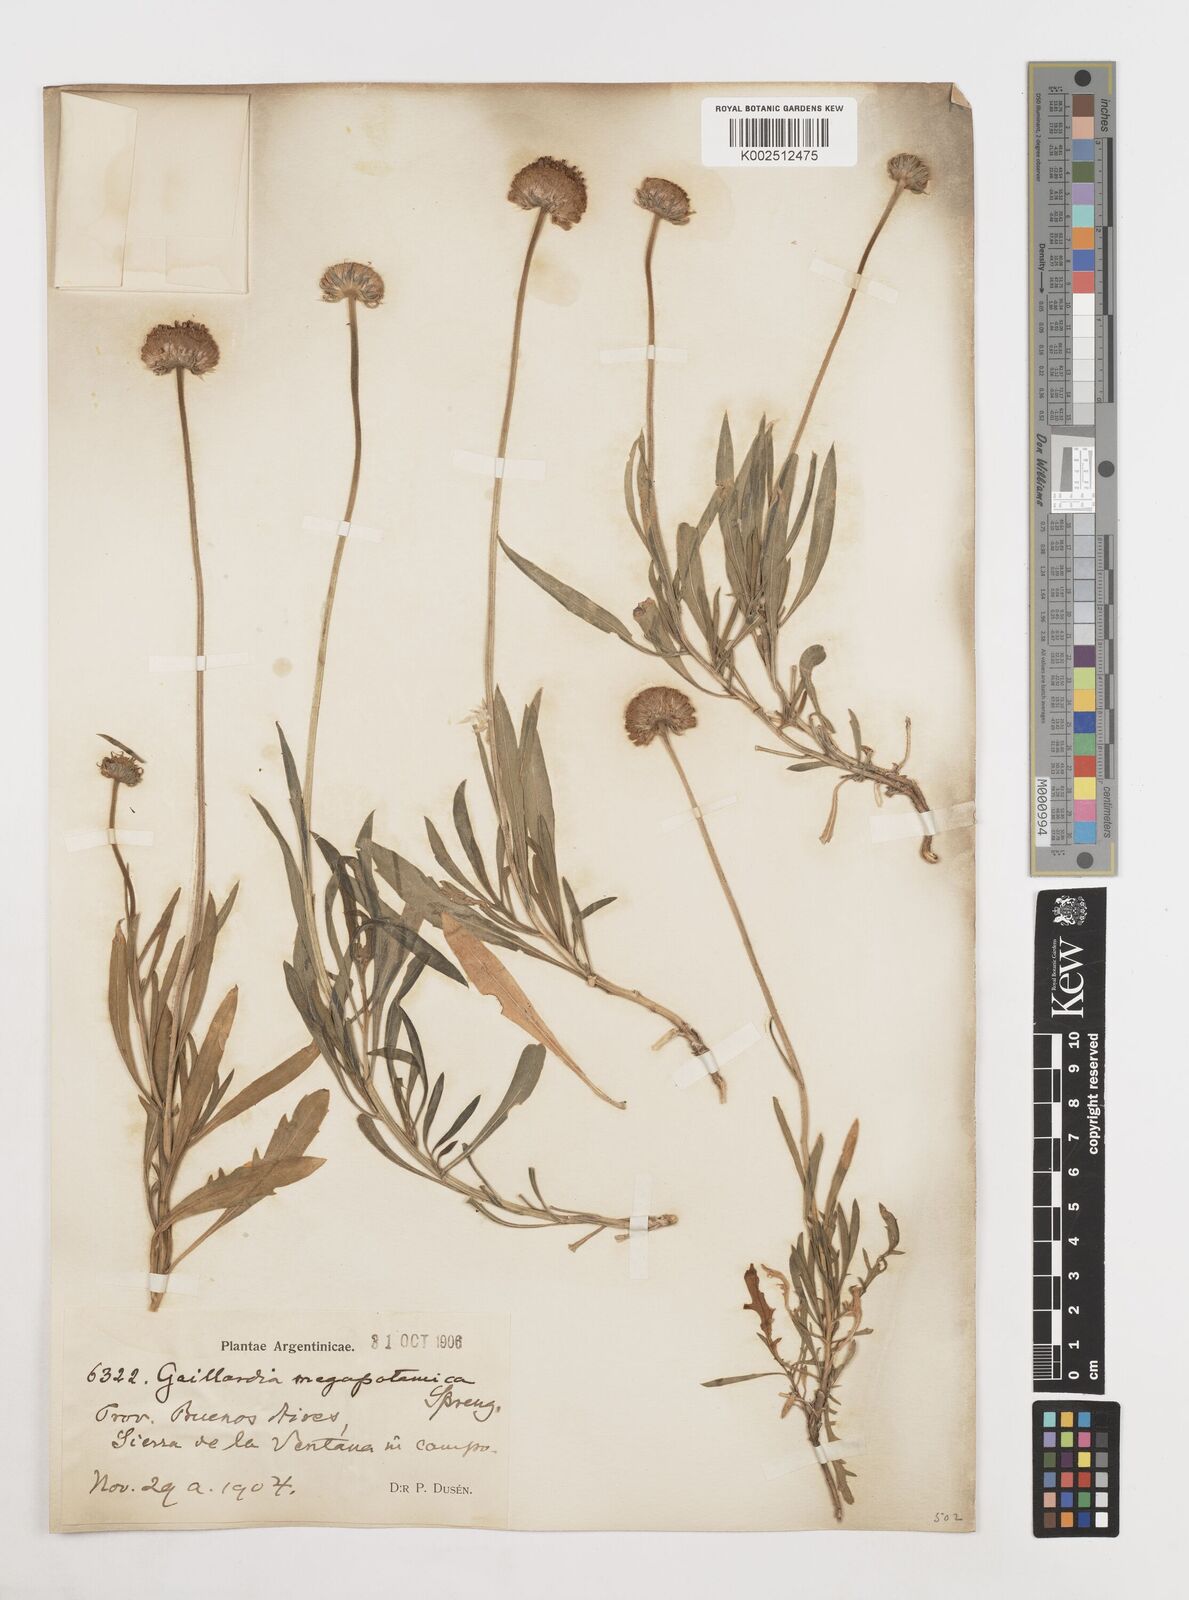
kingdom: Plantae
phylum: Tracheophyta
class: Magnoliopsida
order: Asterales
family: Asteraceae
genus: Gaillardia
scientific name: Gaillardia megapotamica
